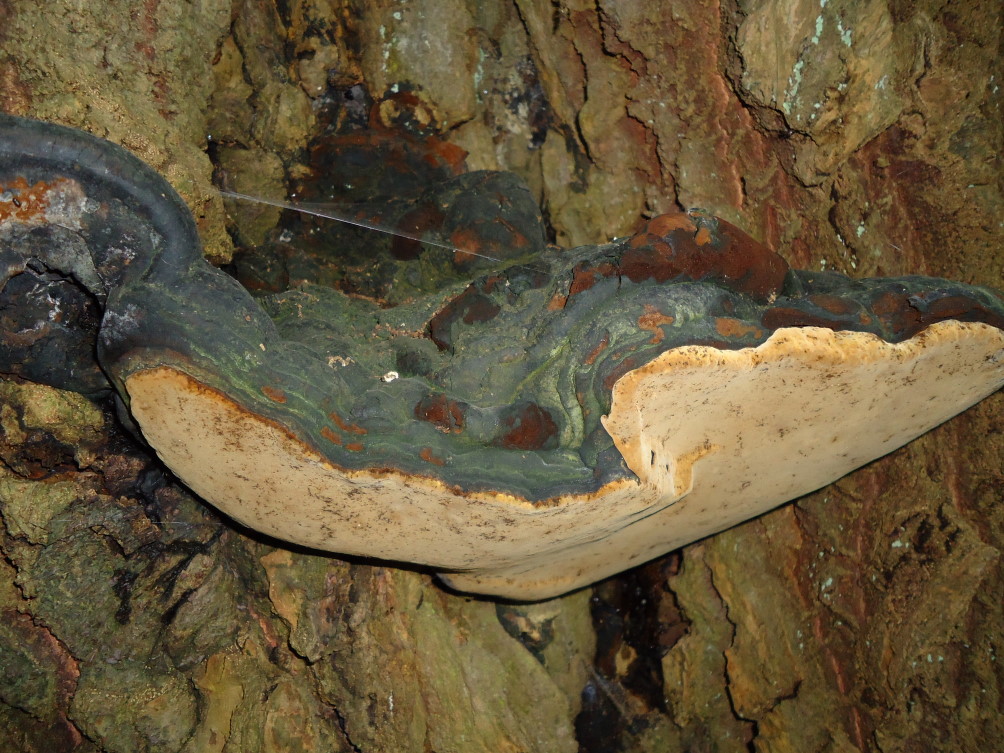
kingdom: Fungi
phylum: Basidiomycota
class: Agaricomycetes
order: Hymenochaetales
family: Hymenochaetaceae
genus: Phellinus
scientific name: Phellinus populicola
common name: poppel-ildporesvamp
